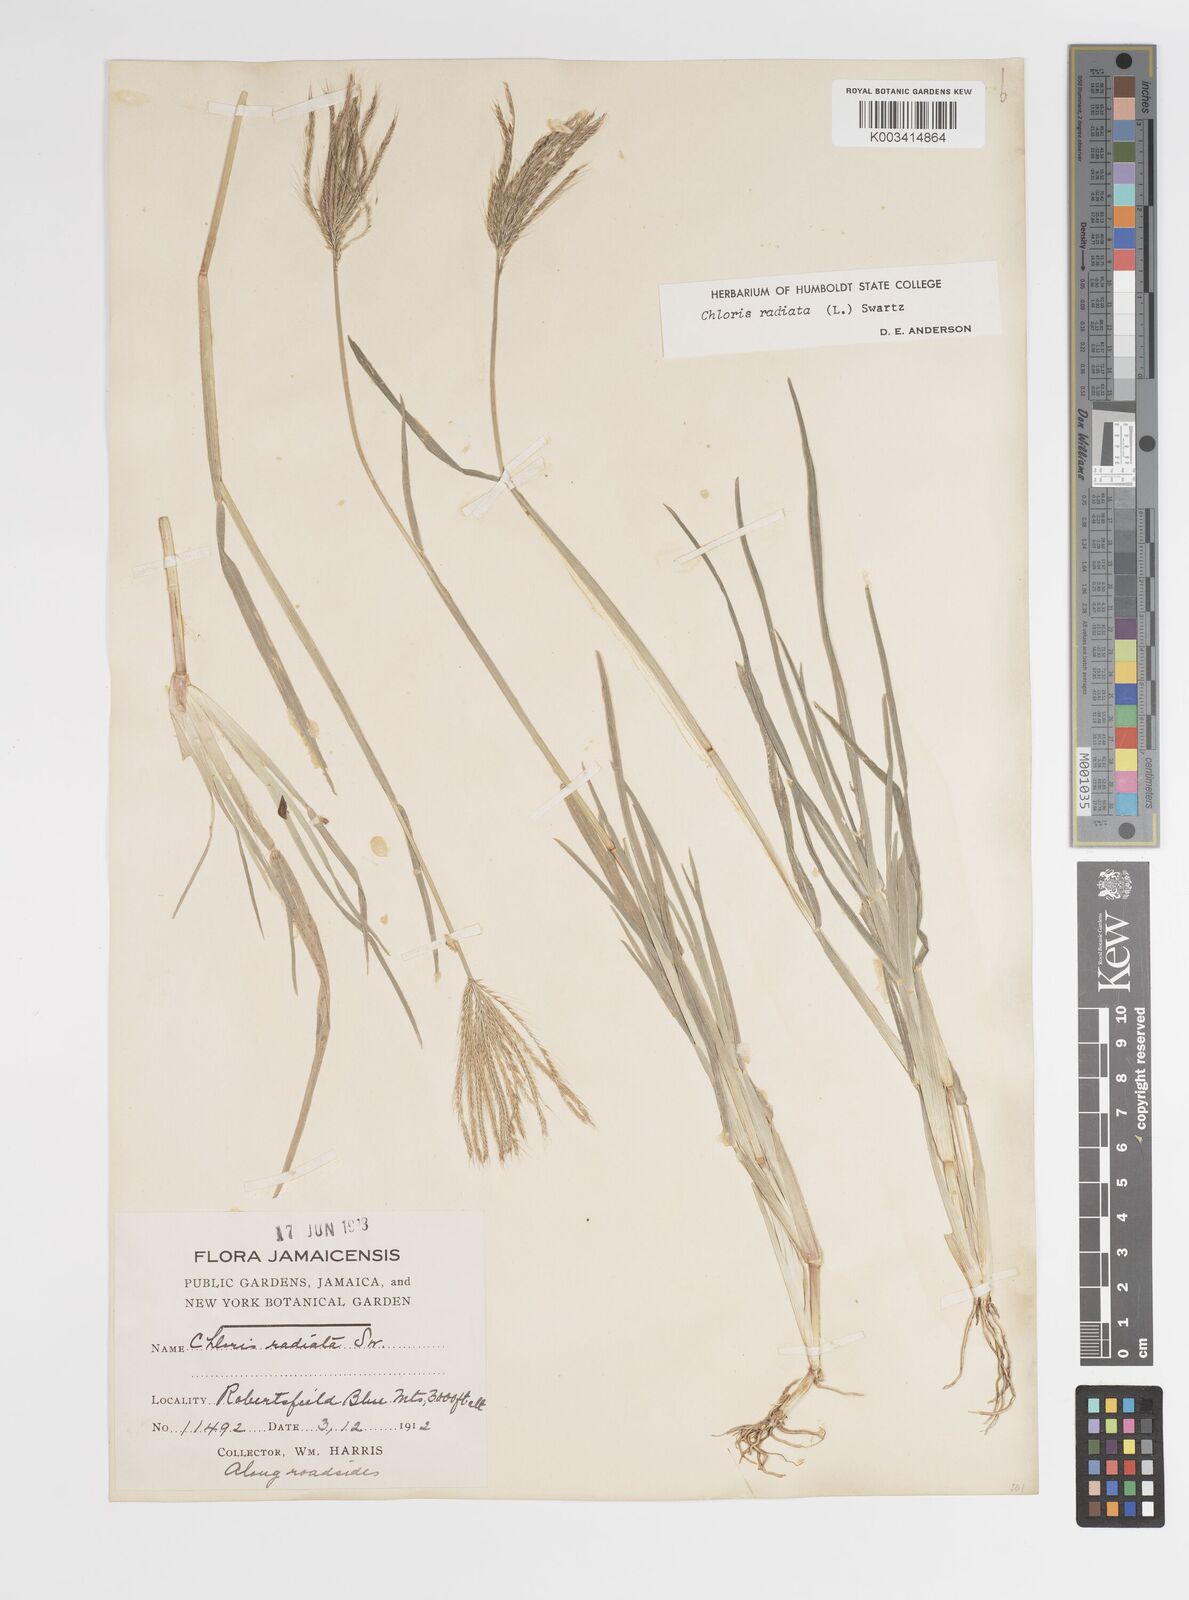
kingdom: Plantae
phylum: Tracheophyta
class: Liliopsida
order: Poales
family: Poaceae
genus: Chloris
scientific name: Chloris radiata
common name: Radiate fingergrass
